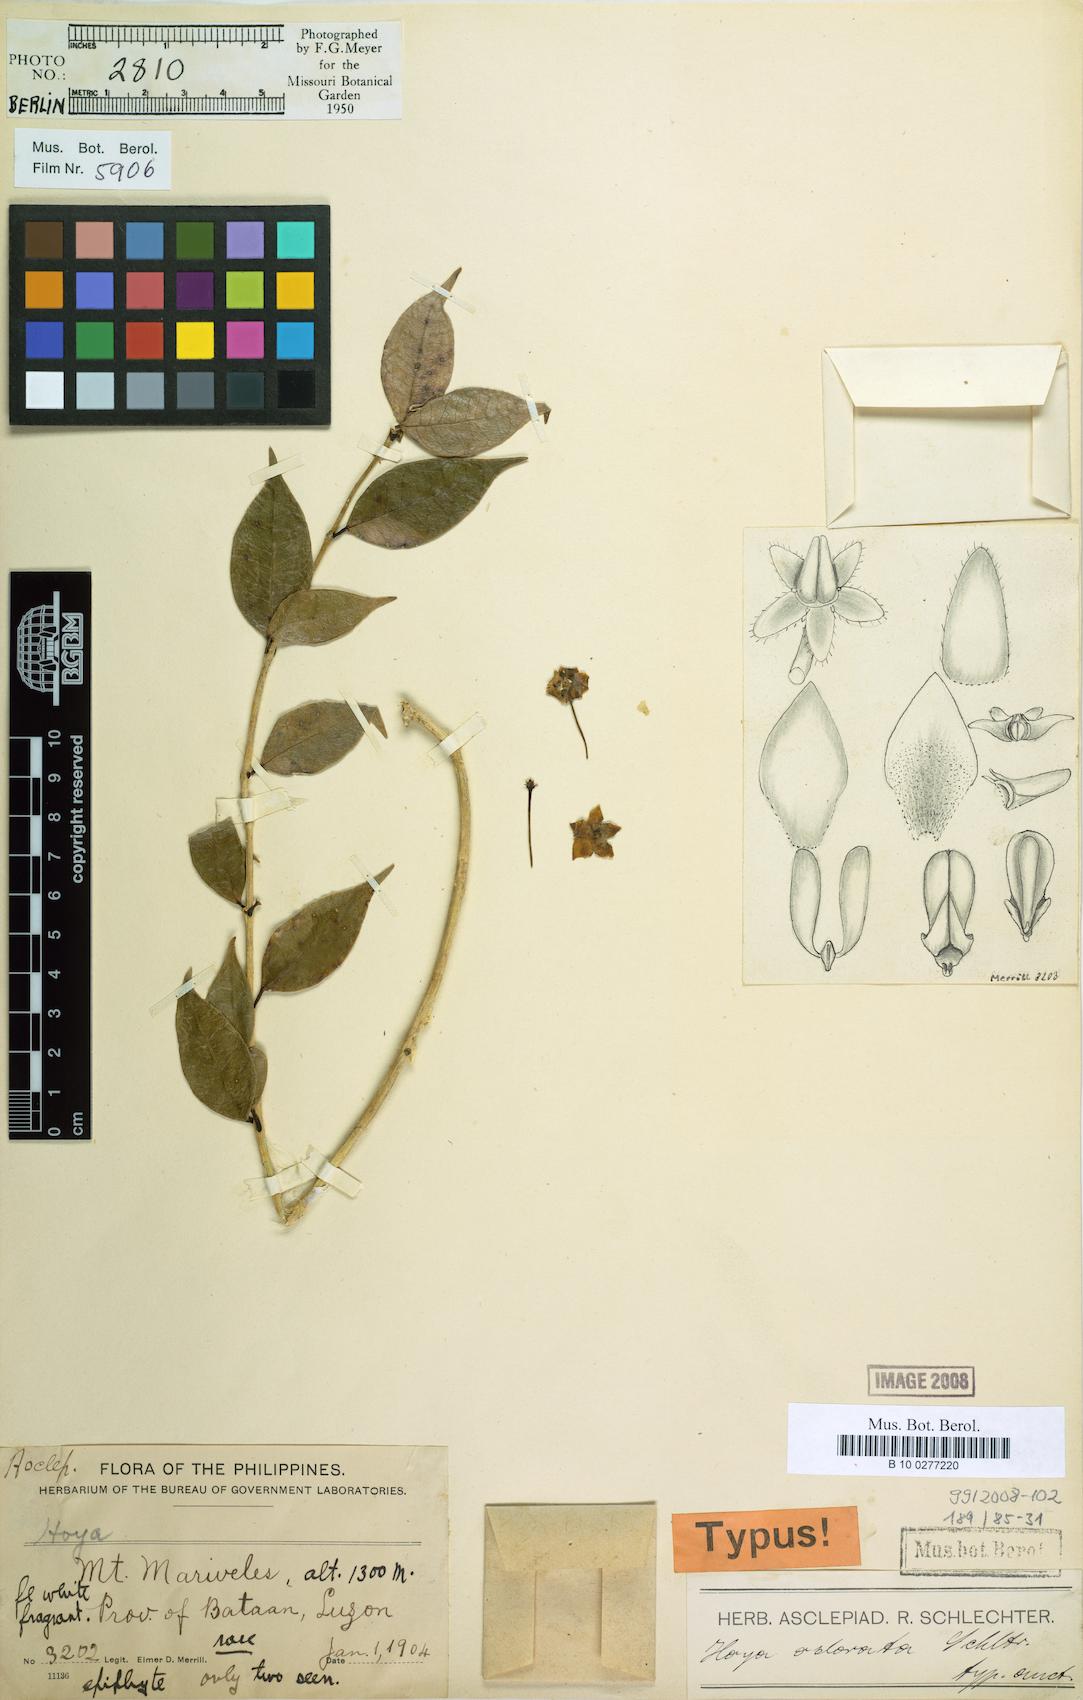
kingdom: Plantae
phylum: Tracheophyta
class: Magnoliopsida
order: Gentianales
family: Apocynaceae
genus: Hoya
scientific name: Hoya odorata
